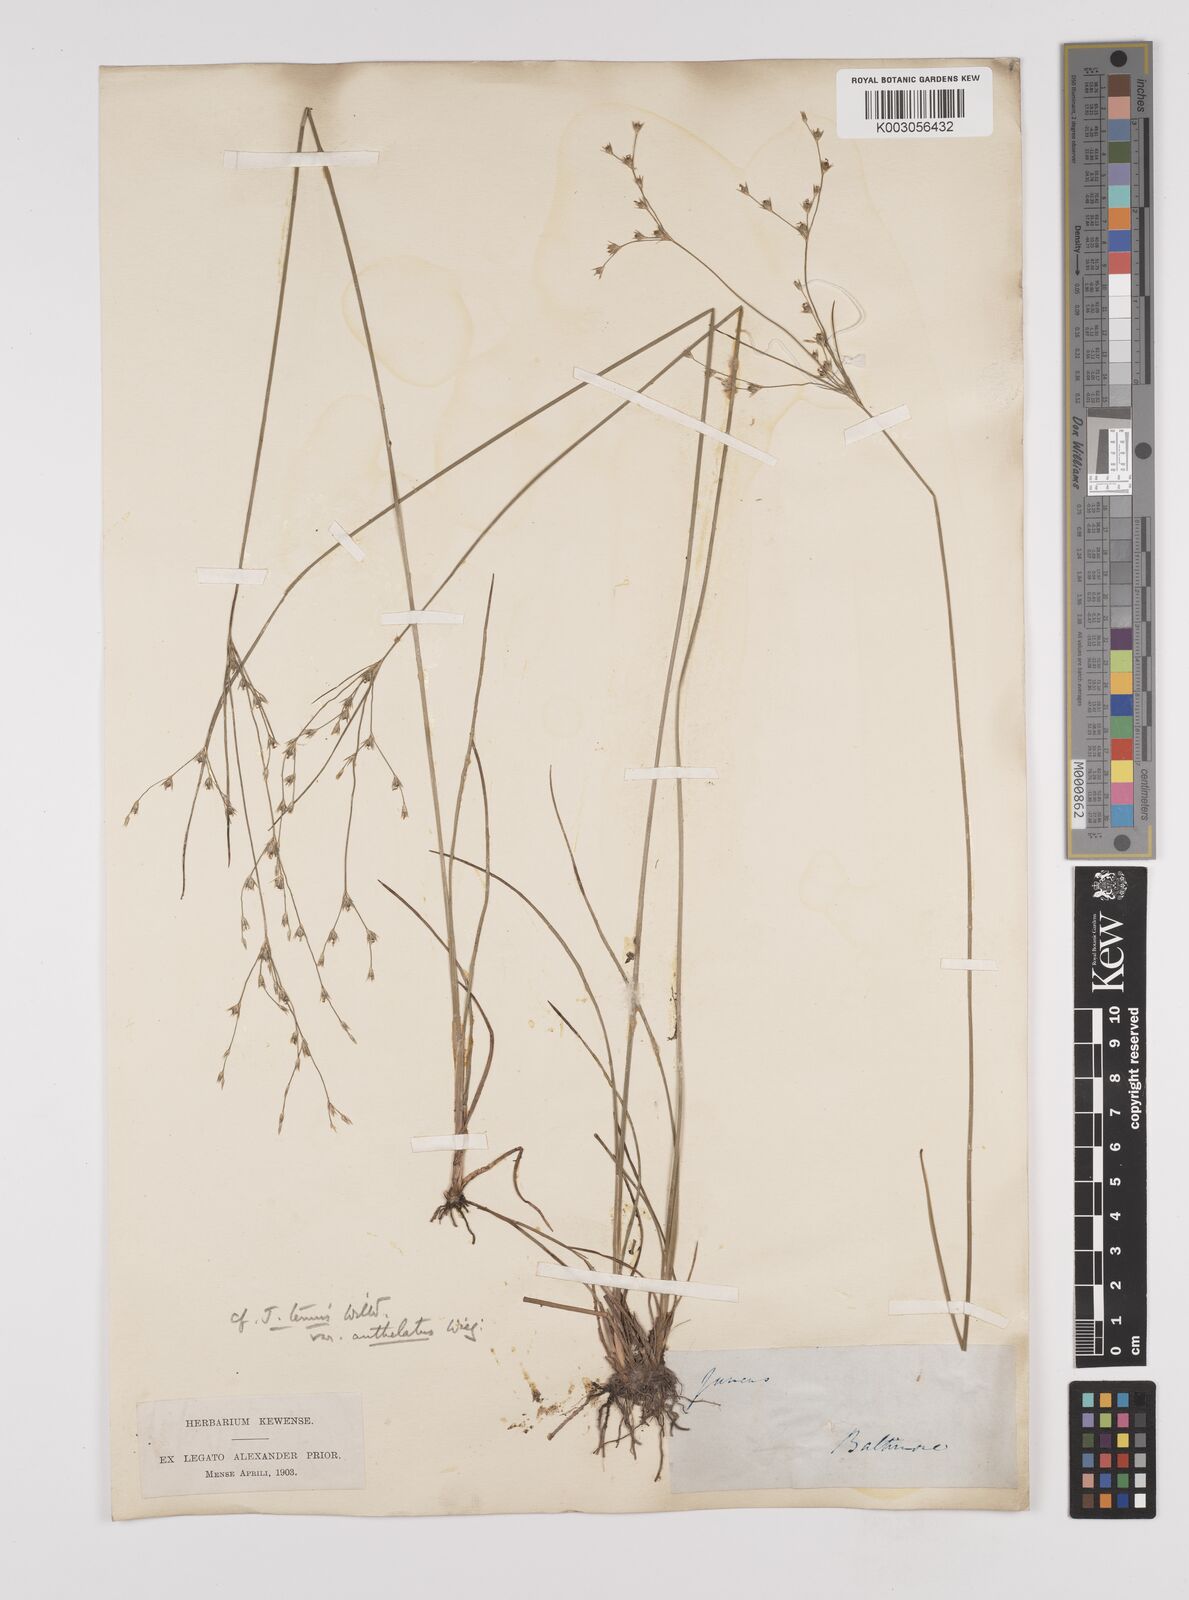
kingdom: Plantae
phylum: Tracheophyta
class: Liliopsida
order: Poales
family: Juncaceae
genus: Juncus
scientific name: Juncus anthelatus
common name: Giant path rush
